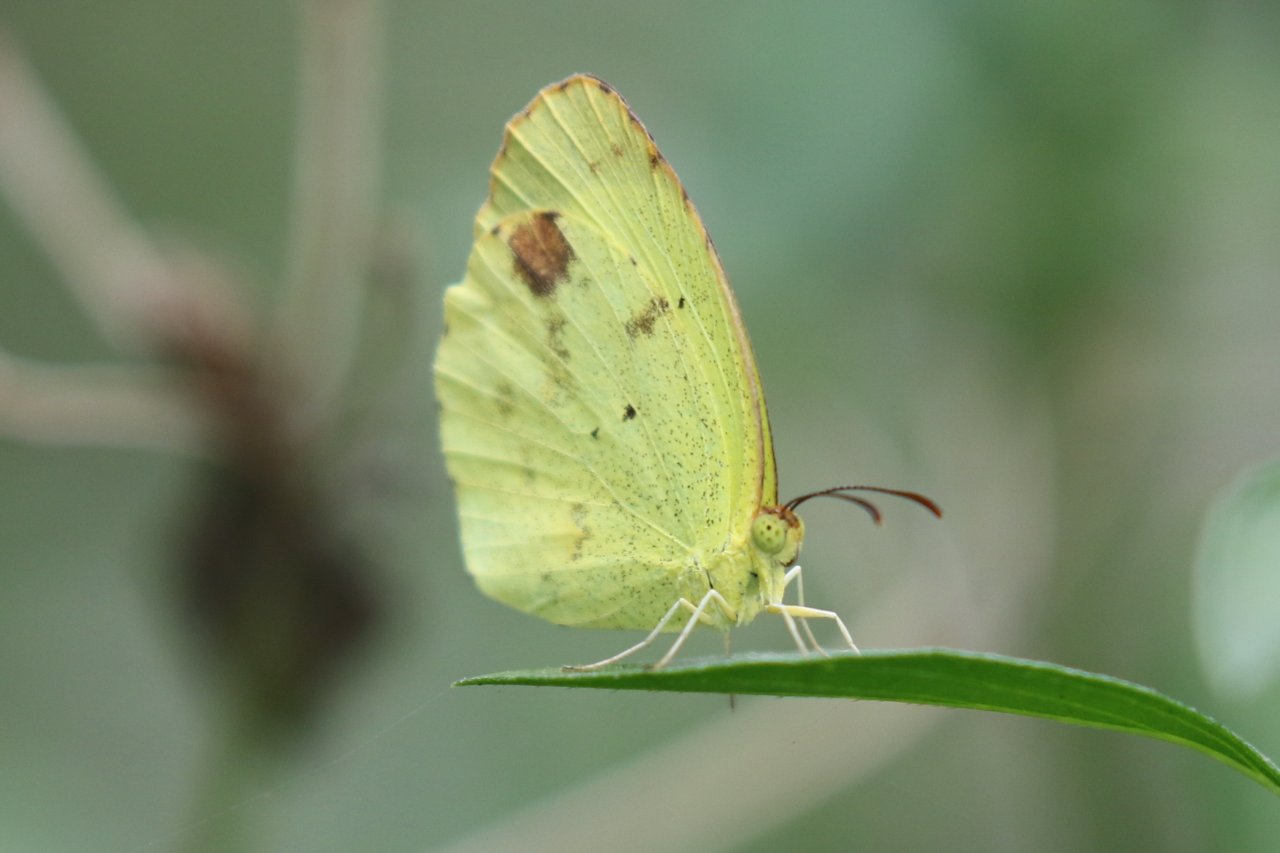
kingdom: Animalia
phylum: Arthropoda
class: Insecta
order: Lepidoptera
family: Pieridae
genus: Pyrisitia
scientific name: Pyrisitia nise
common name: Mimosa Yellow
